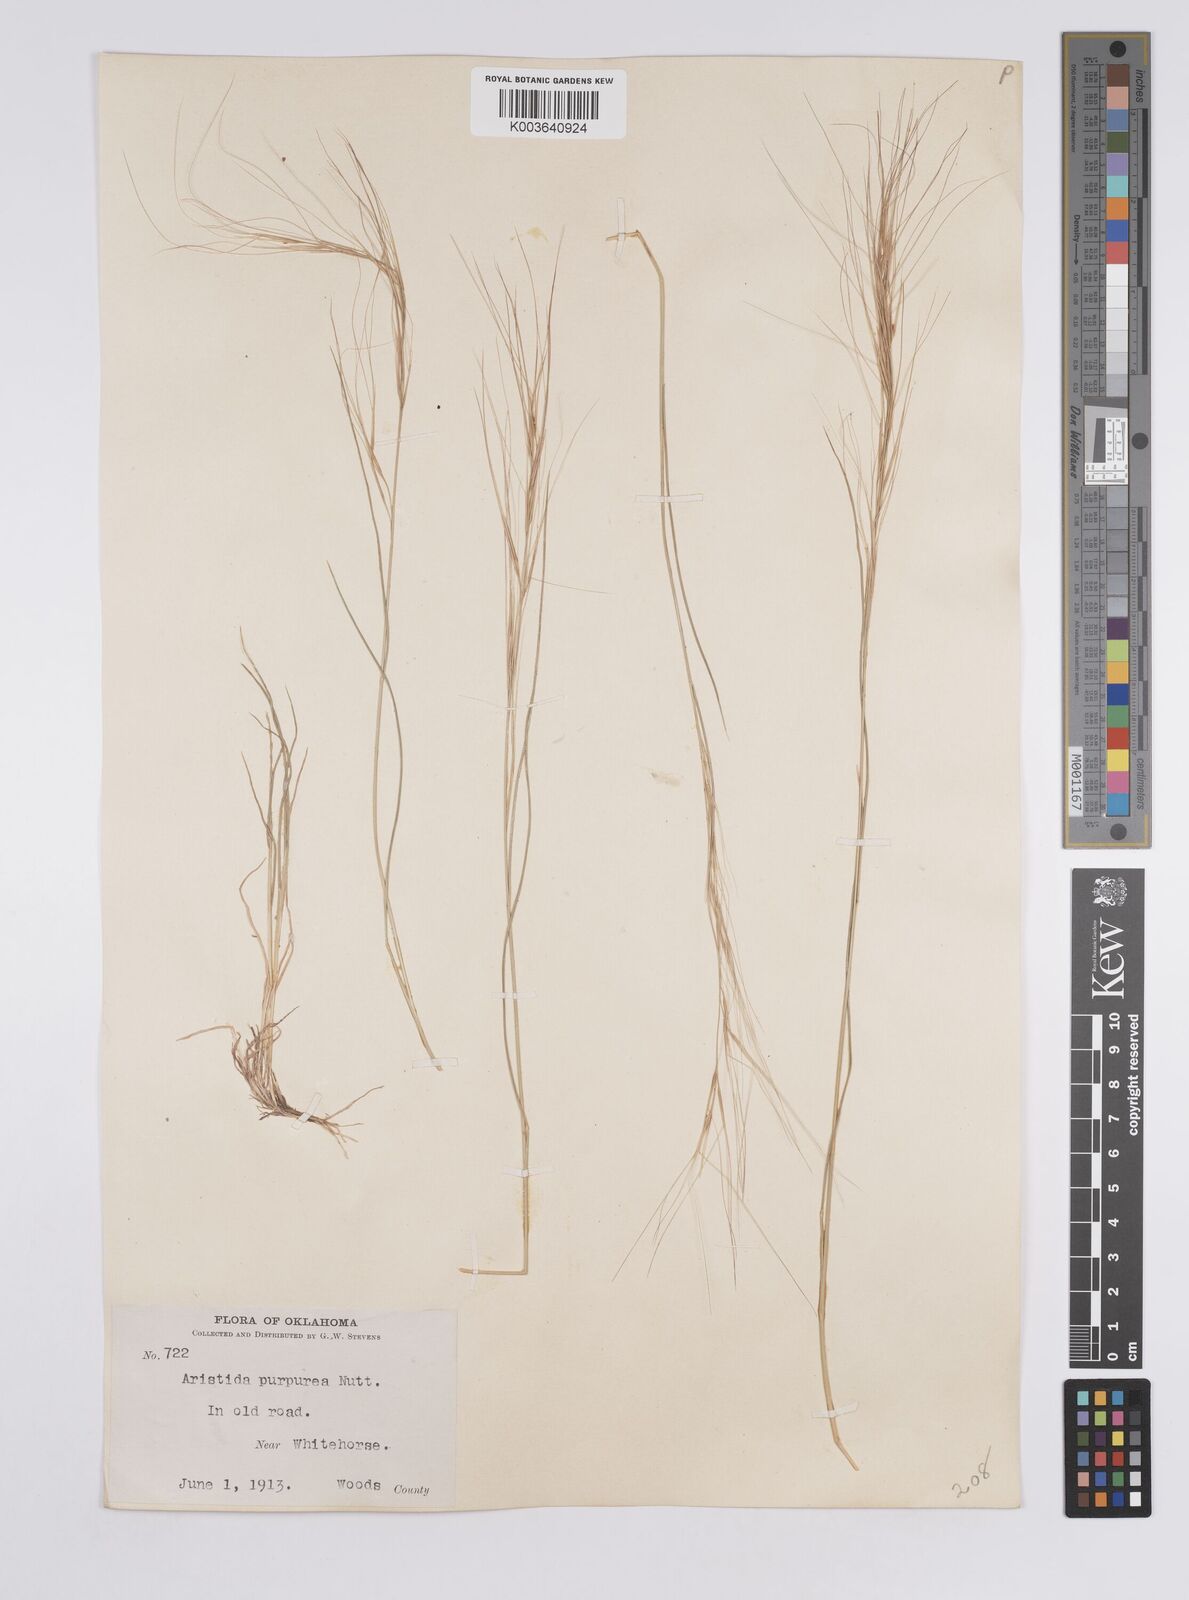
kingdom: Plantae
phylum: Tracheophyta
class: Liliopsida
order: Poales
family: Poaceae
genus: Aristida
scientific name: Aristida purpurea
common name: Purple threeawn
